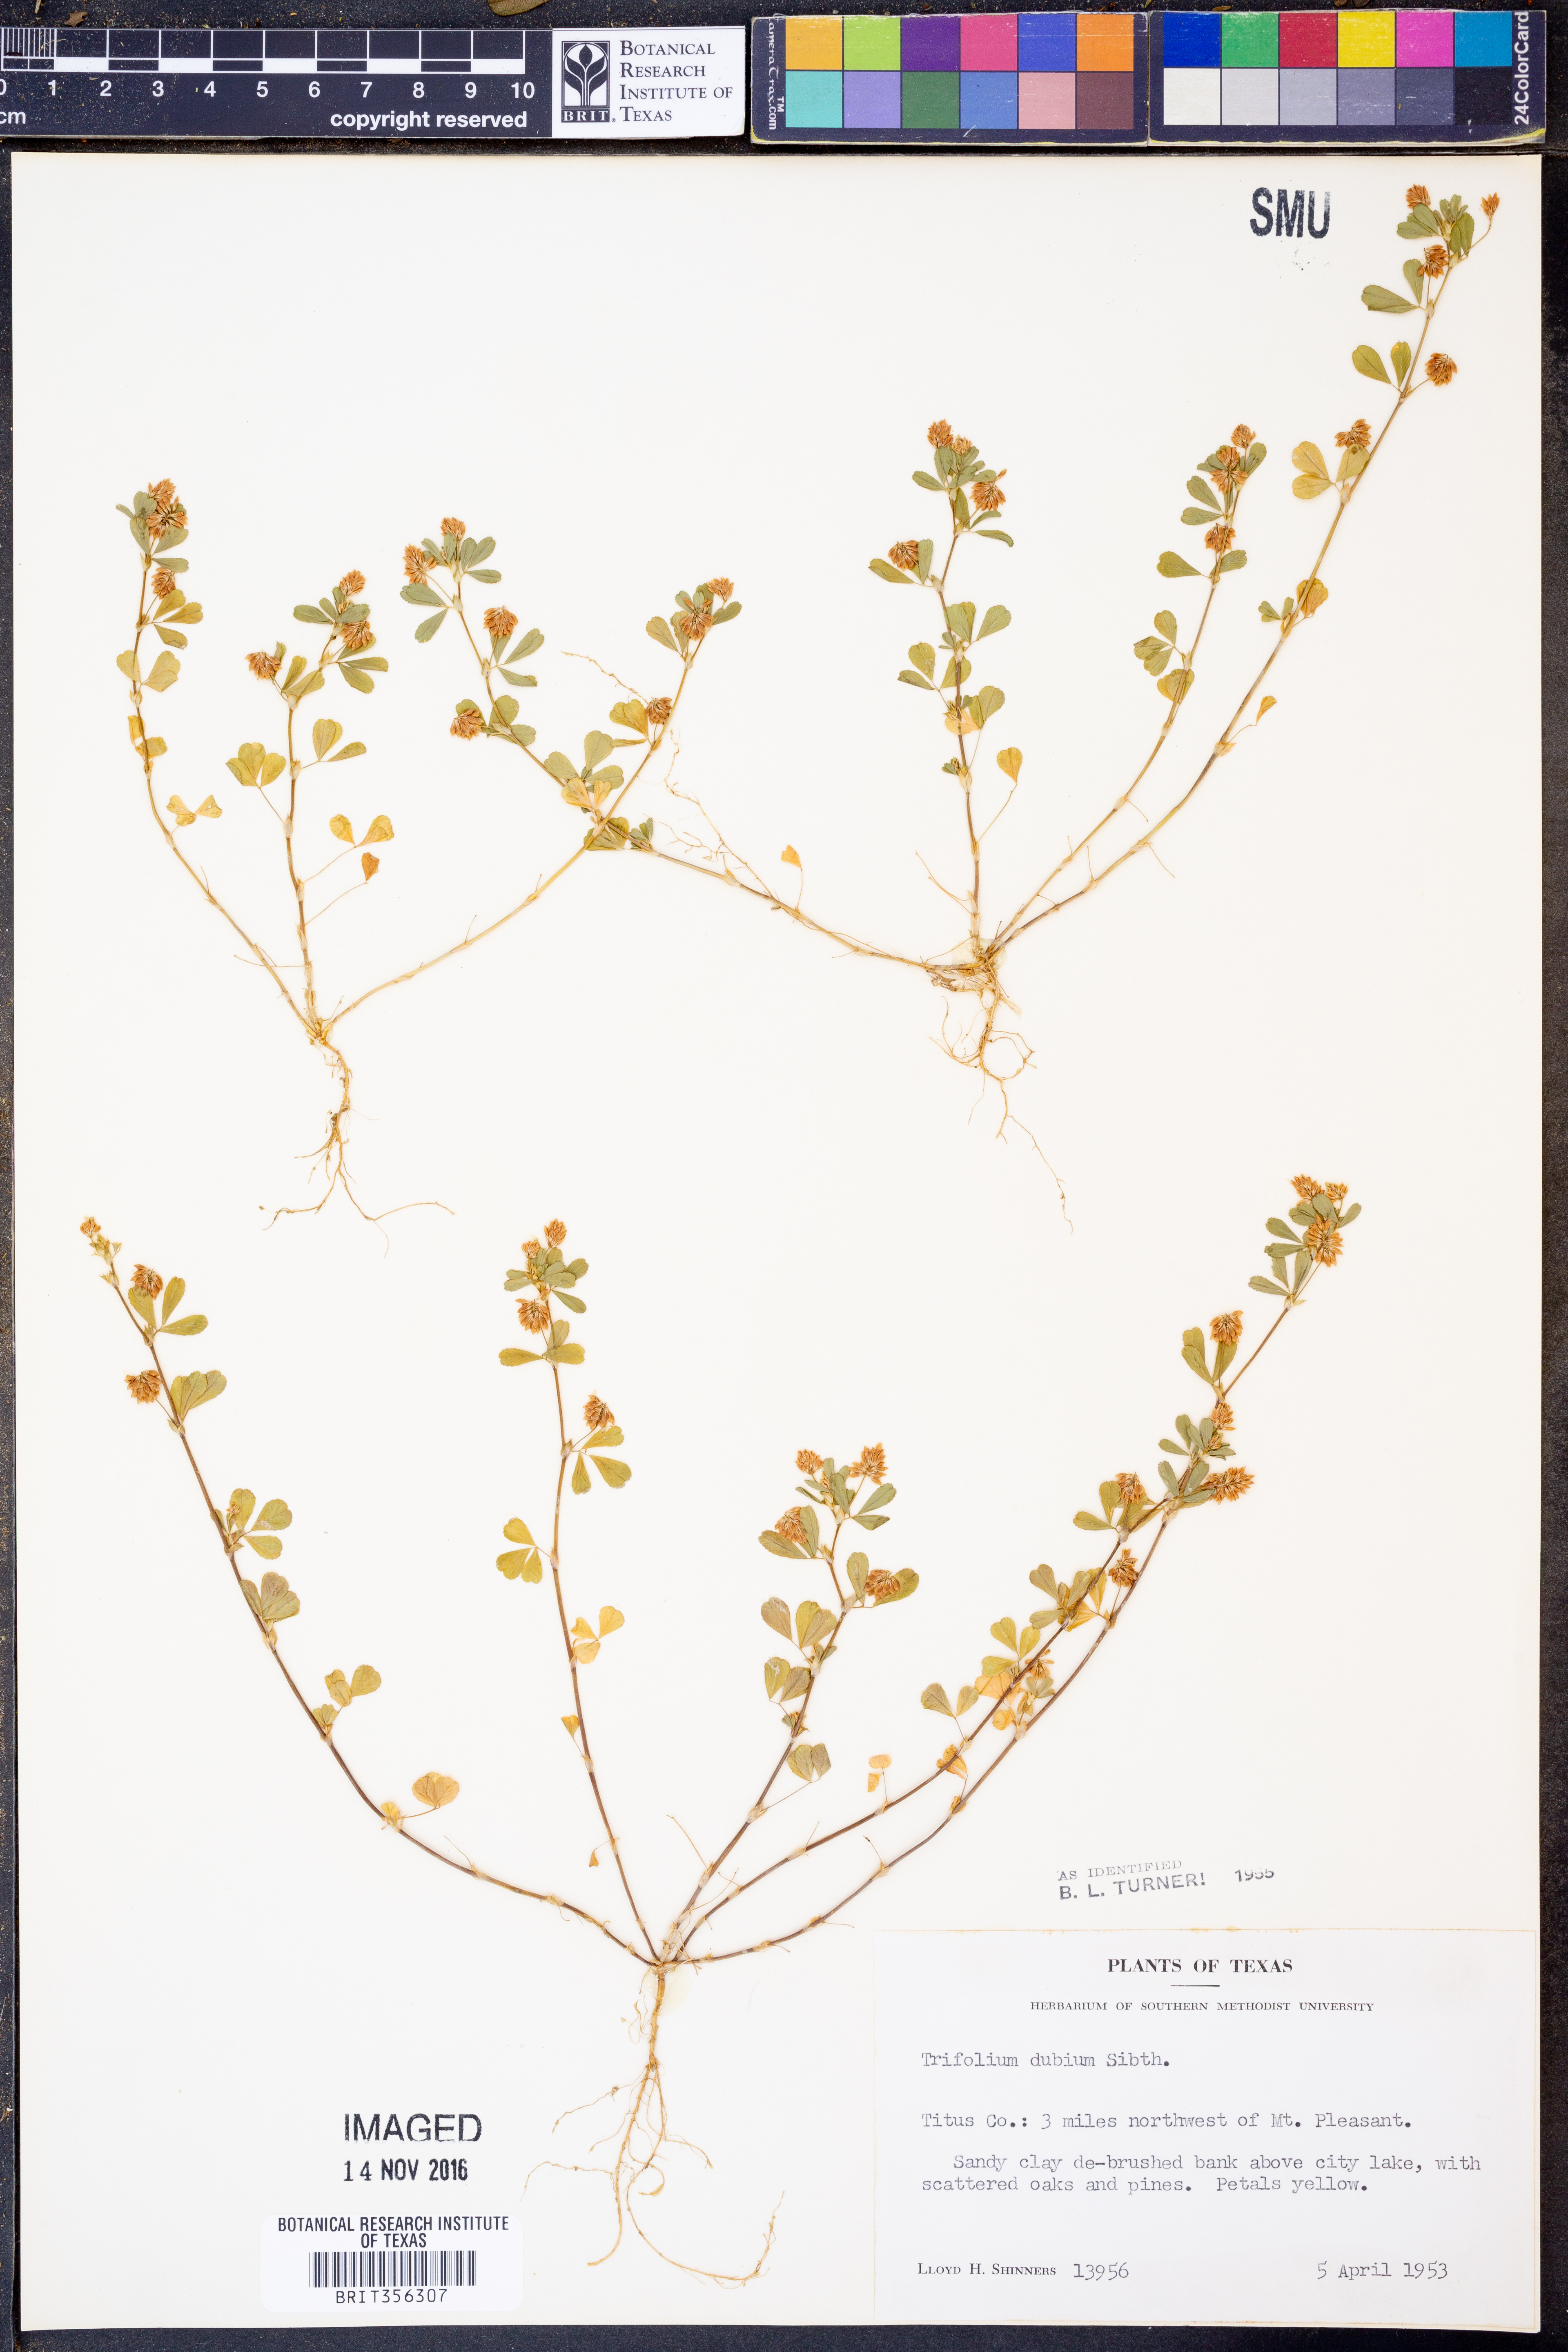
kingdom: Plantae
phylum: Tracheophyta
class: Magnoliopsida
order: Fabales
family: Fabaceae
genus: Trifolium
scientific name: Trifolium dubium
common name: Suckling clover
